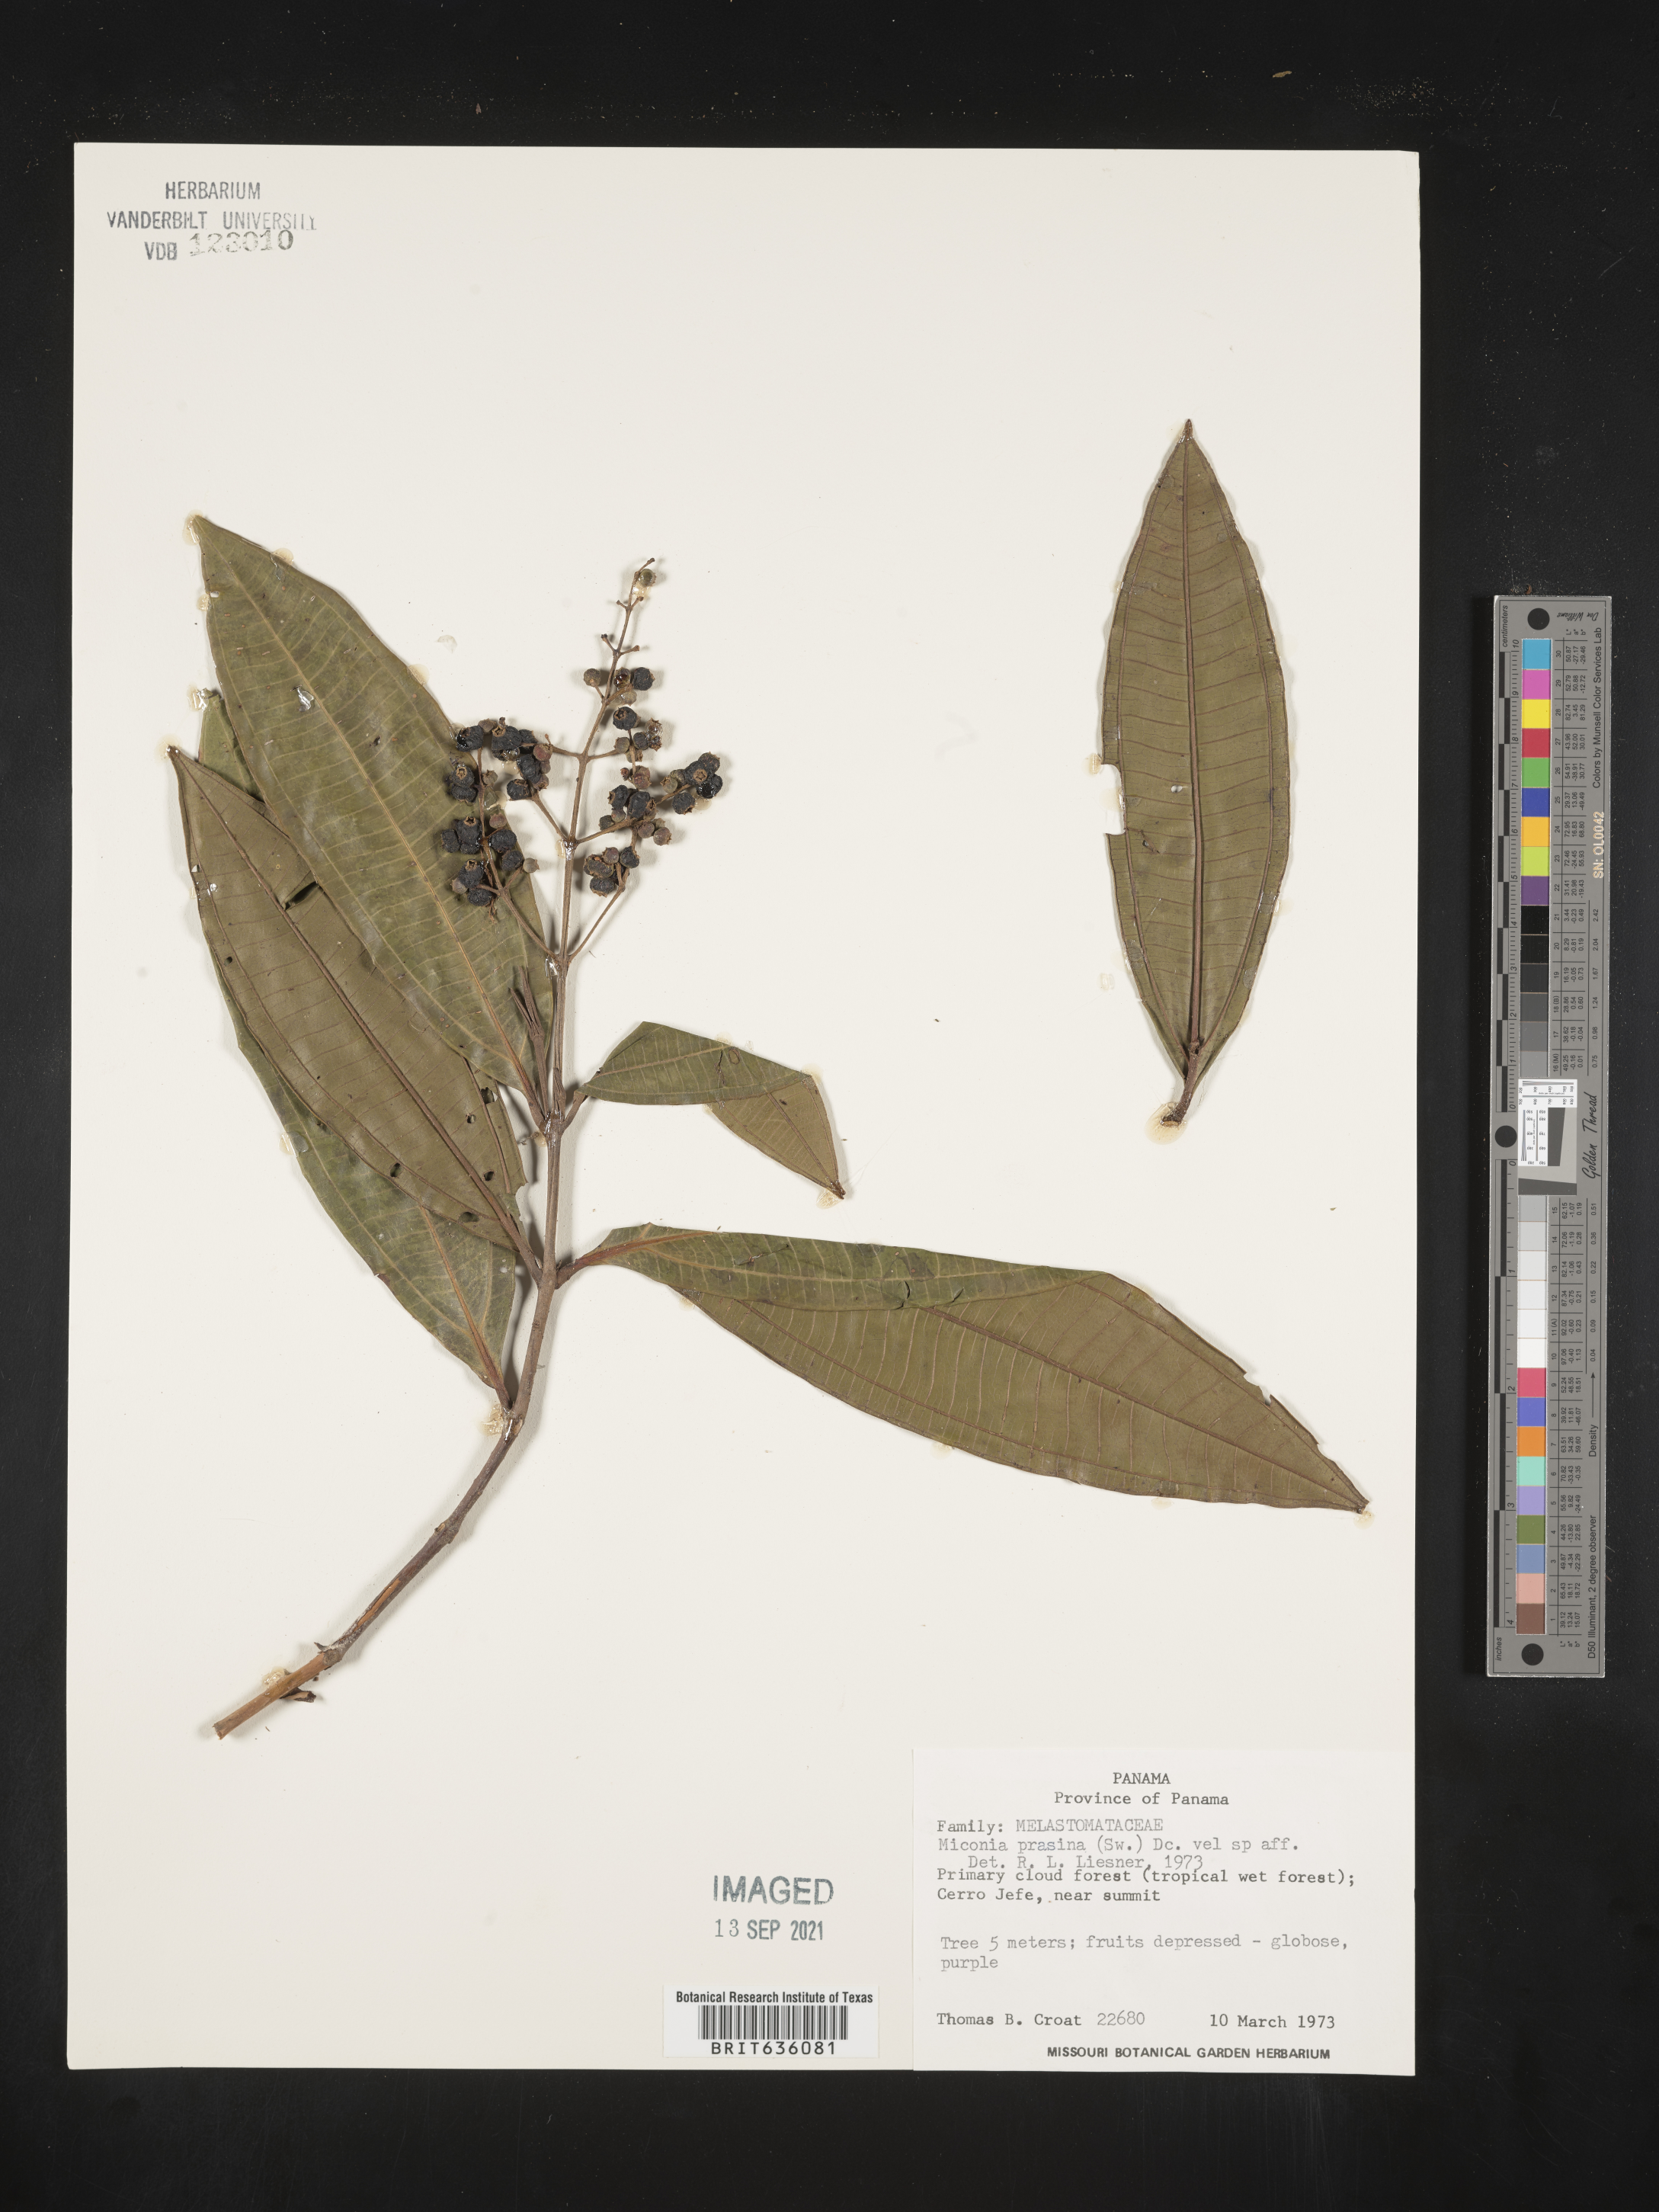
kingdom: Plantae
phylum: Tracheophyta
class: Magnoliopsida
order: Myrtales
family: Melastomataceae
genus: Miconia
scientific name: Miconia
